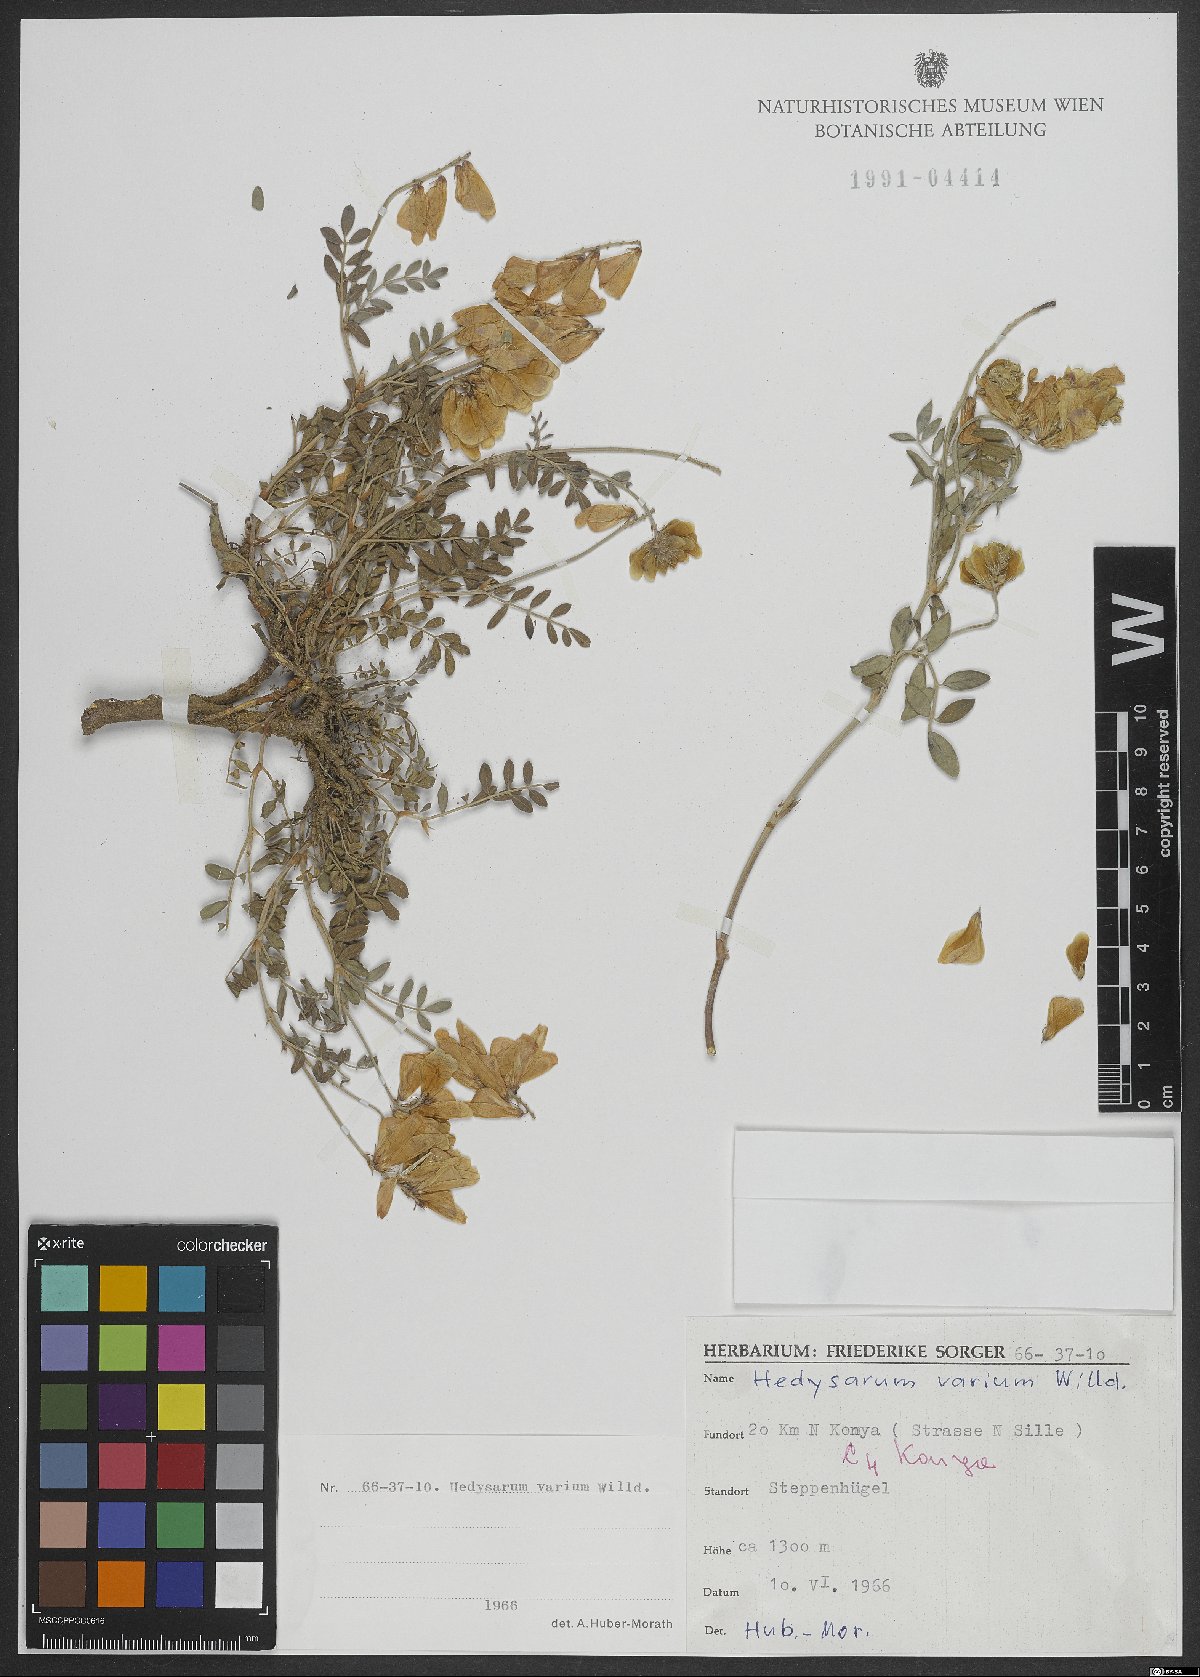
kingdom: Plantae
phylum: Tracheophyta
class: Magnoliopsida
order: Fabales
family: Fabaceae
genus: Hedysarum
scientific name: Hedysarum varium
